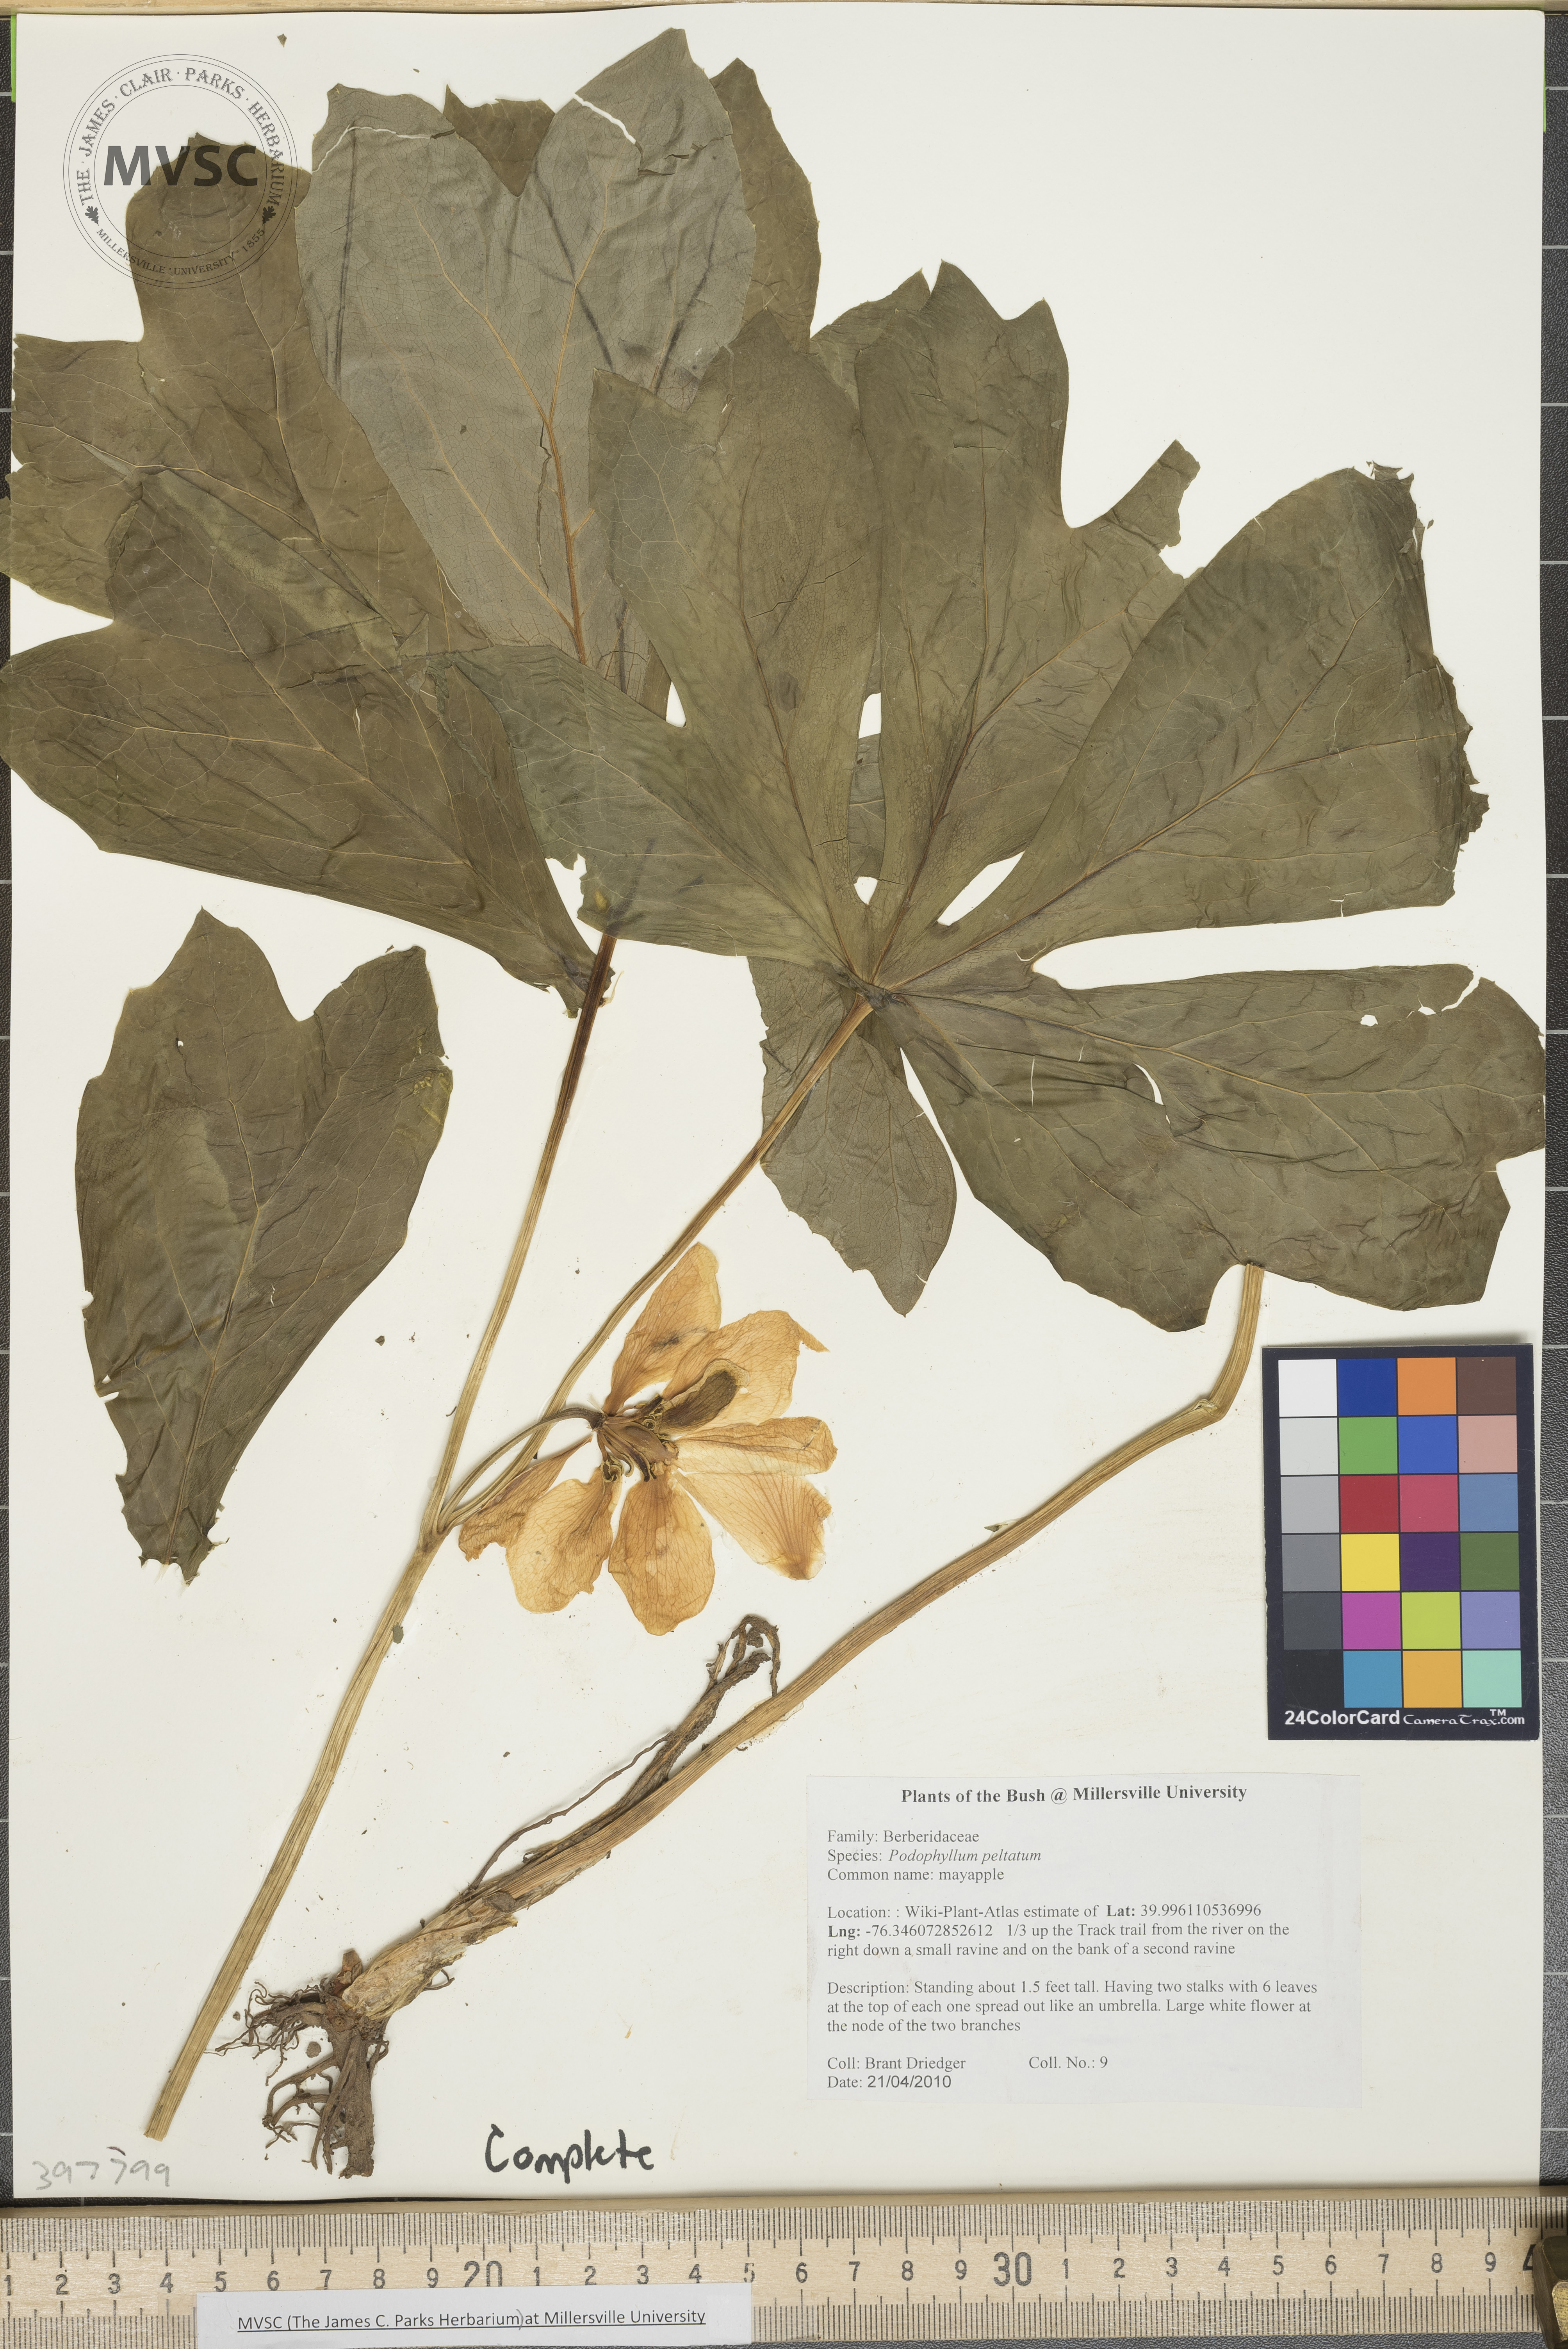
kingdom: Plantae
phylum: Tracheophyta
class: Magnoliopsida
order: Ranunculales
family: Berberidaceae
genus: Podophyllum
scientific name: Podophyllum peltatum
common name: Mayapple
